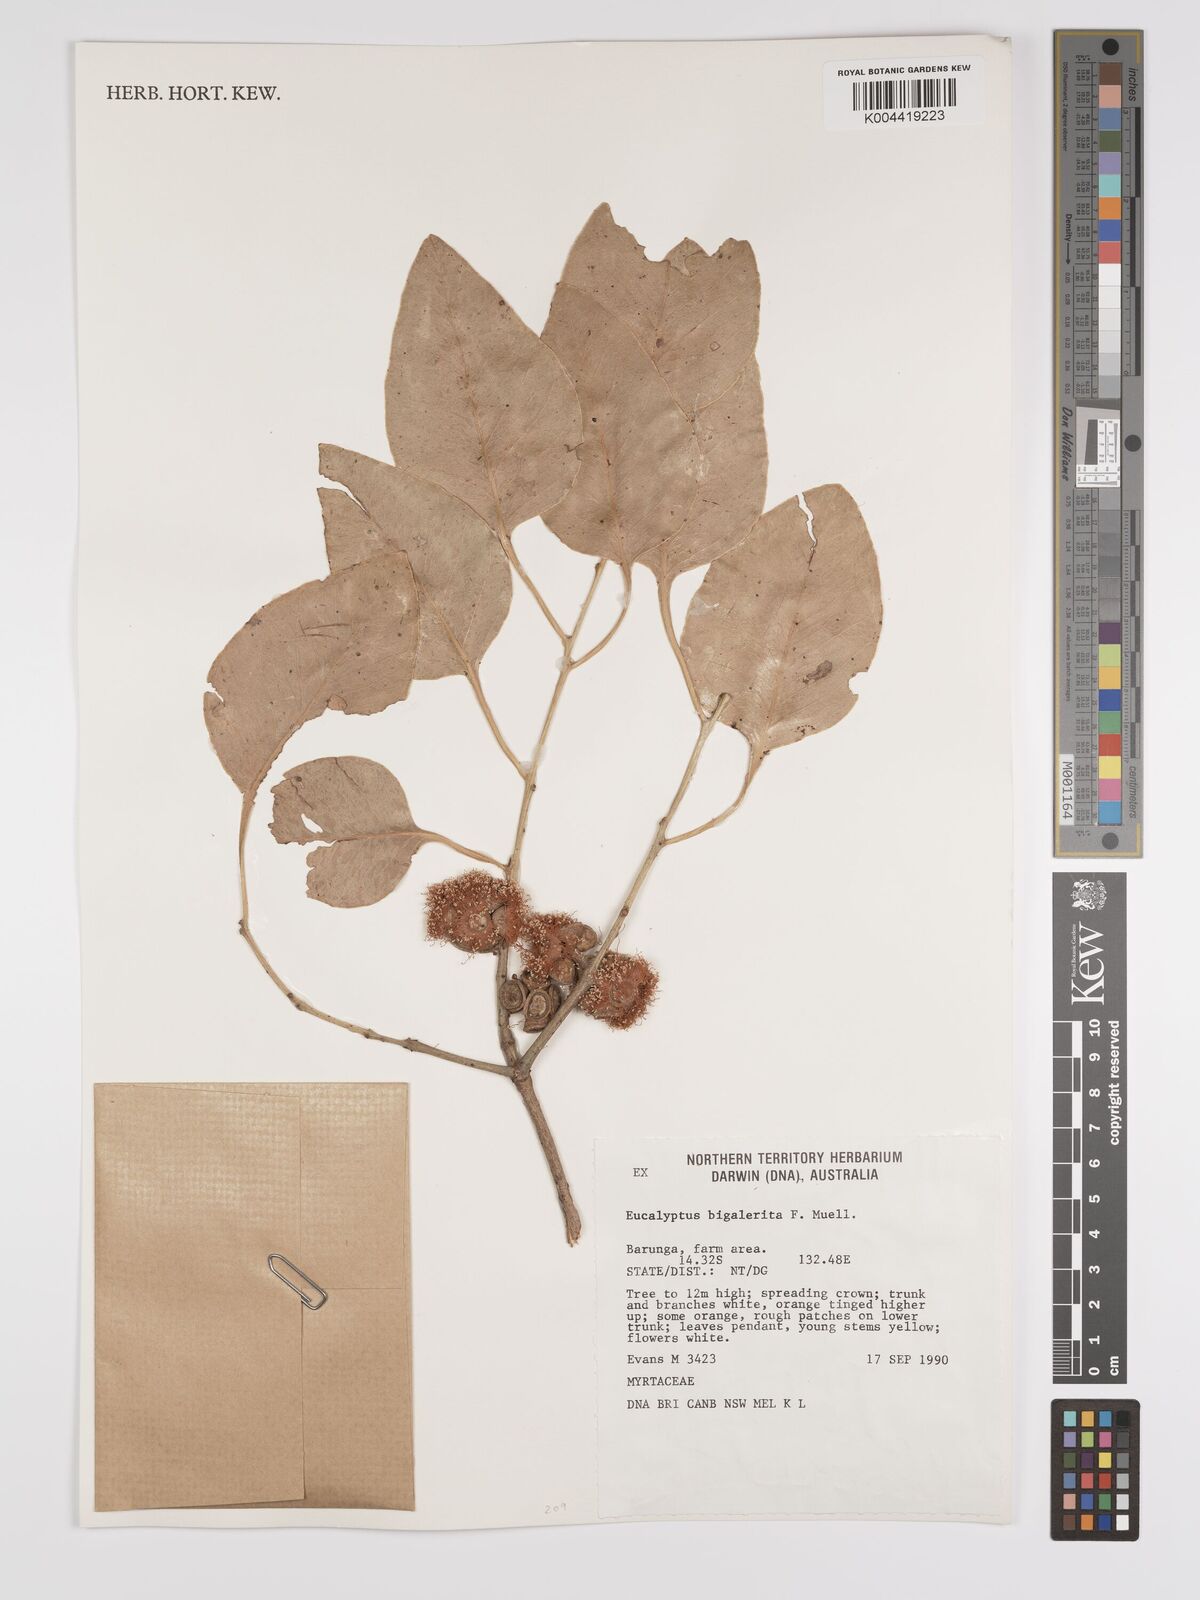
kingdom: Plantae
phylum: Tracheophyta
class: Magnoliopsida
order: Myrtales
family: Myrtaceae
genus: Eucalyptus
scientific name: Eucalyptus bigalerita
